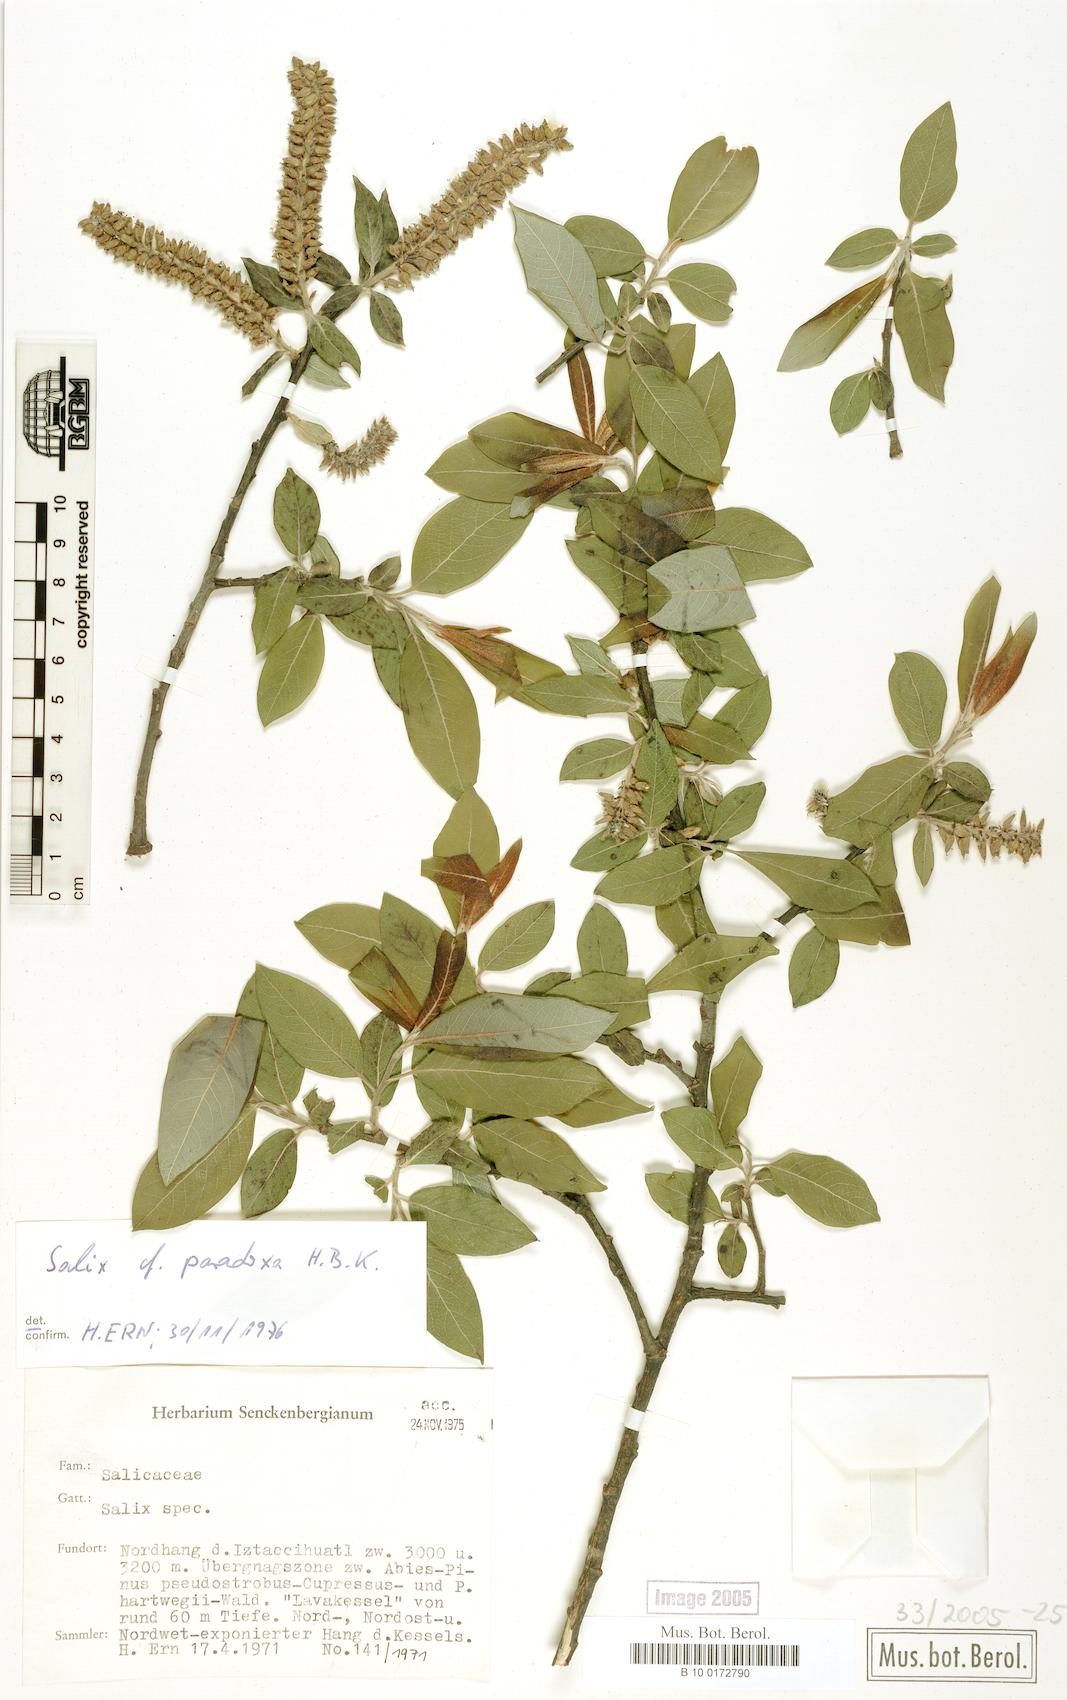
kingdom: Plantae
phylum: Tracheophyta
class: Magnoliopsida
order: Malpighiales
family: Salicaceae
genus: Salix
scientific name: Salix paradoxa
